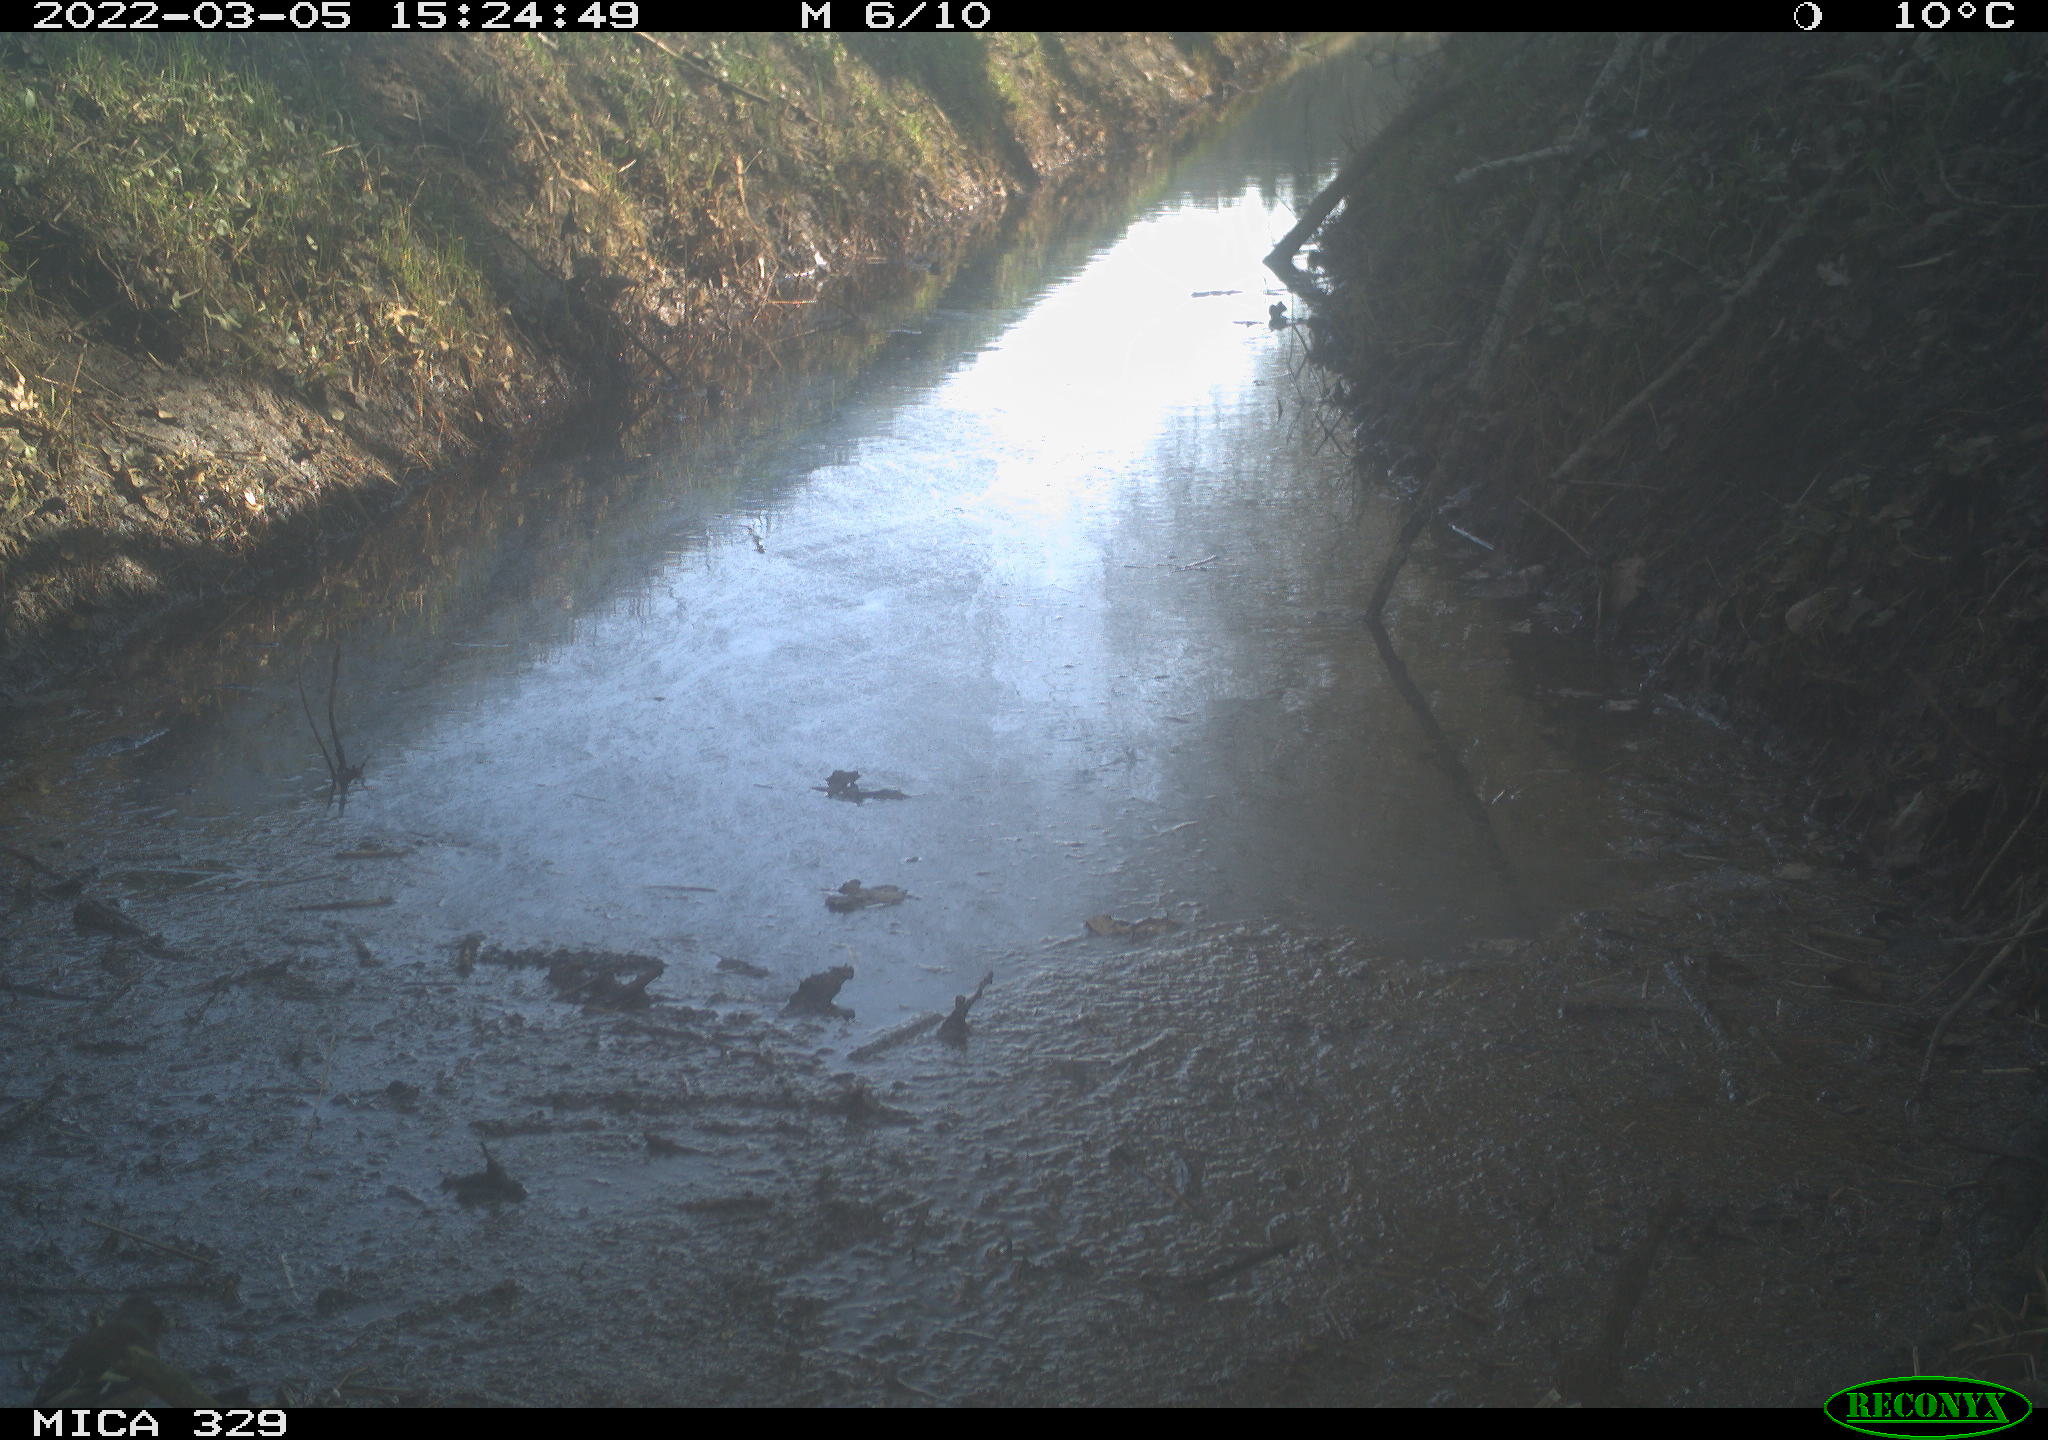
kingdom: Animalia
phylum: Chordata
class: Aves
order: Passeriformes
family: Fringillidae
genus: Fringilla
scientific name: Fringilla coelebs
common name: Common chaffinch
